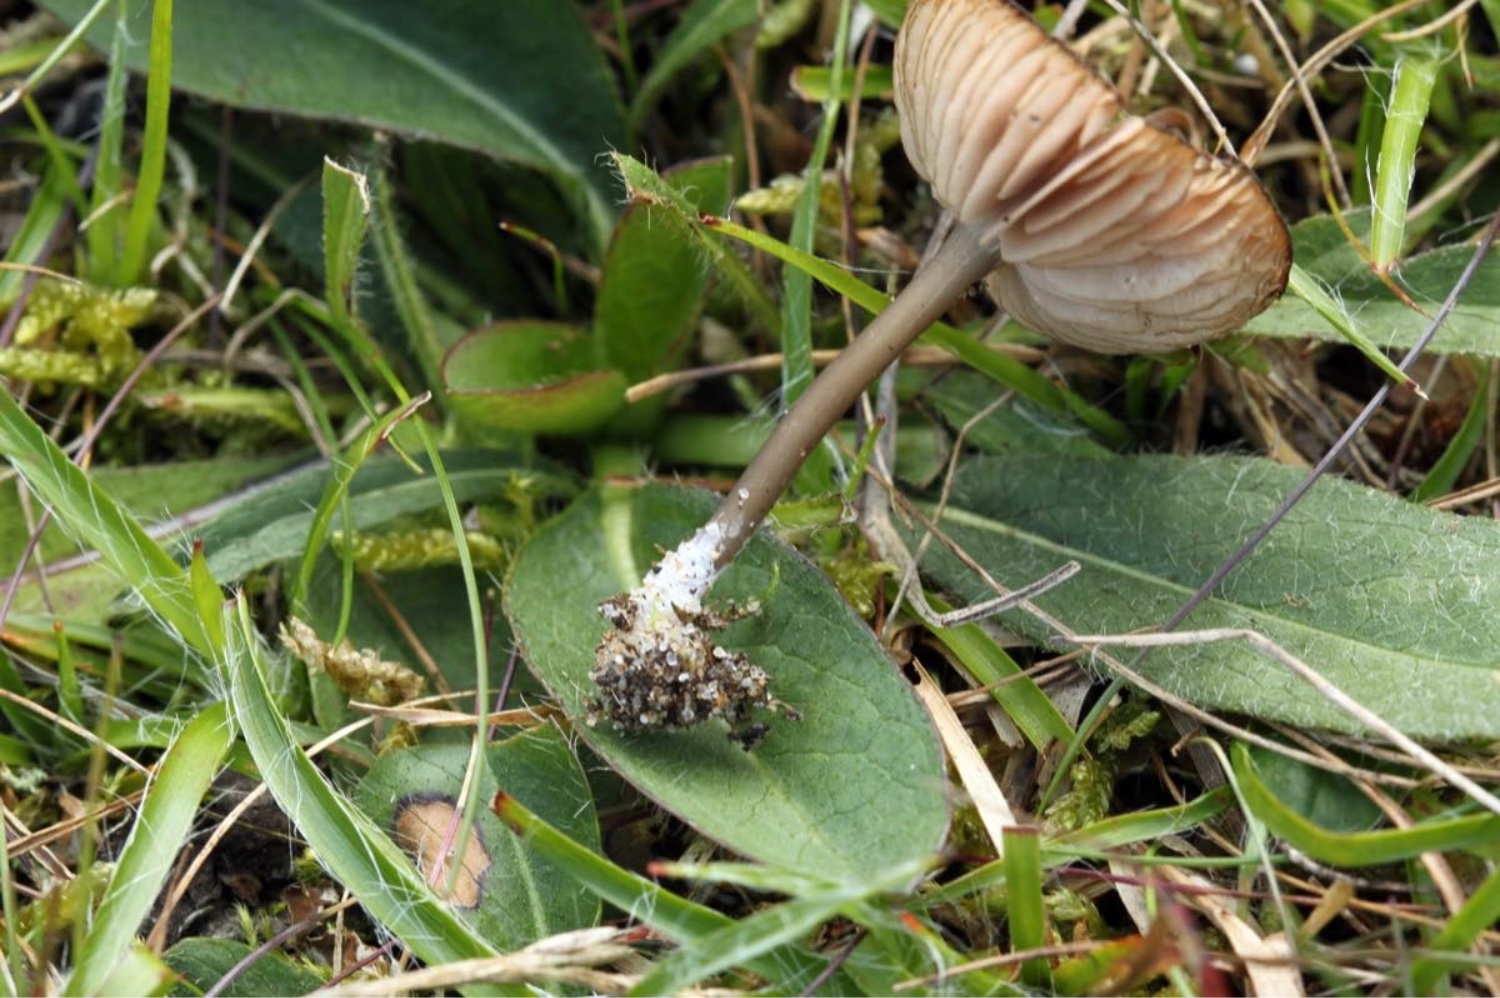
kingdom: Fungi
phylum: Basidiomycota
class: Agaricomycetes
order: Agaricales
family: Entolomataceae
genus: Entoloma
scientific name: Entoloma
